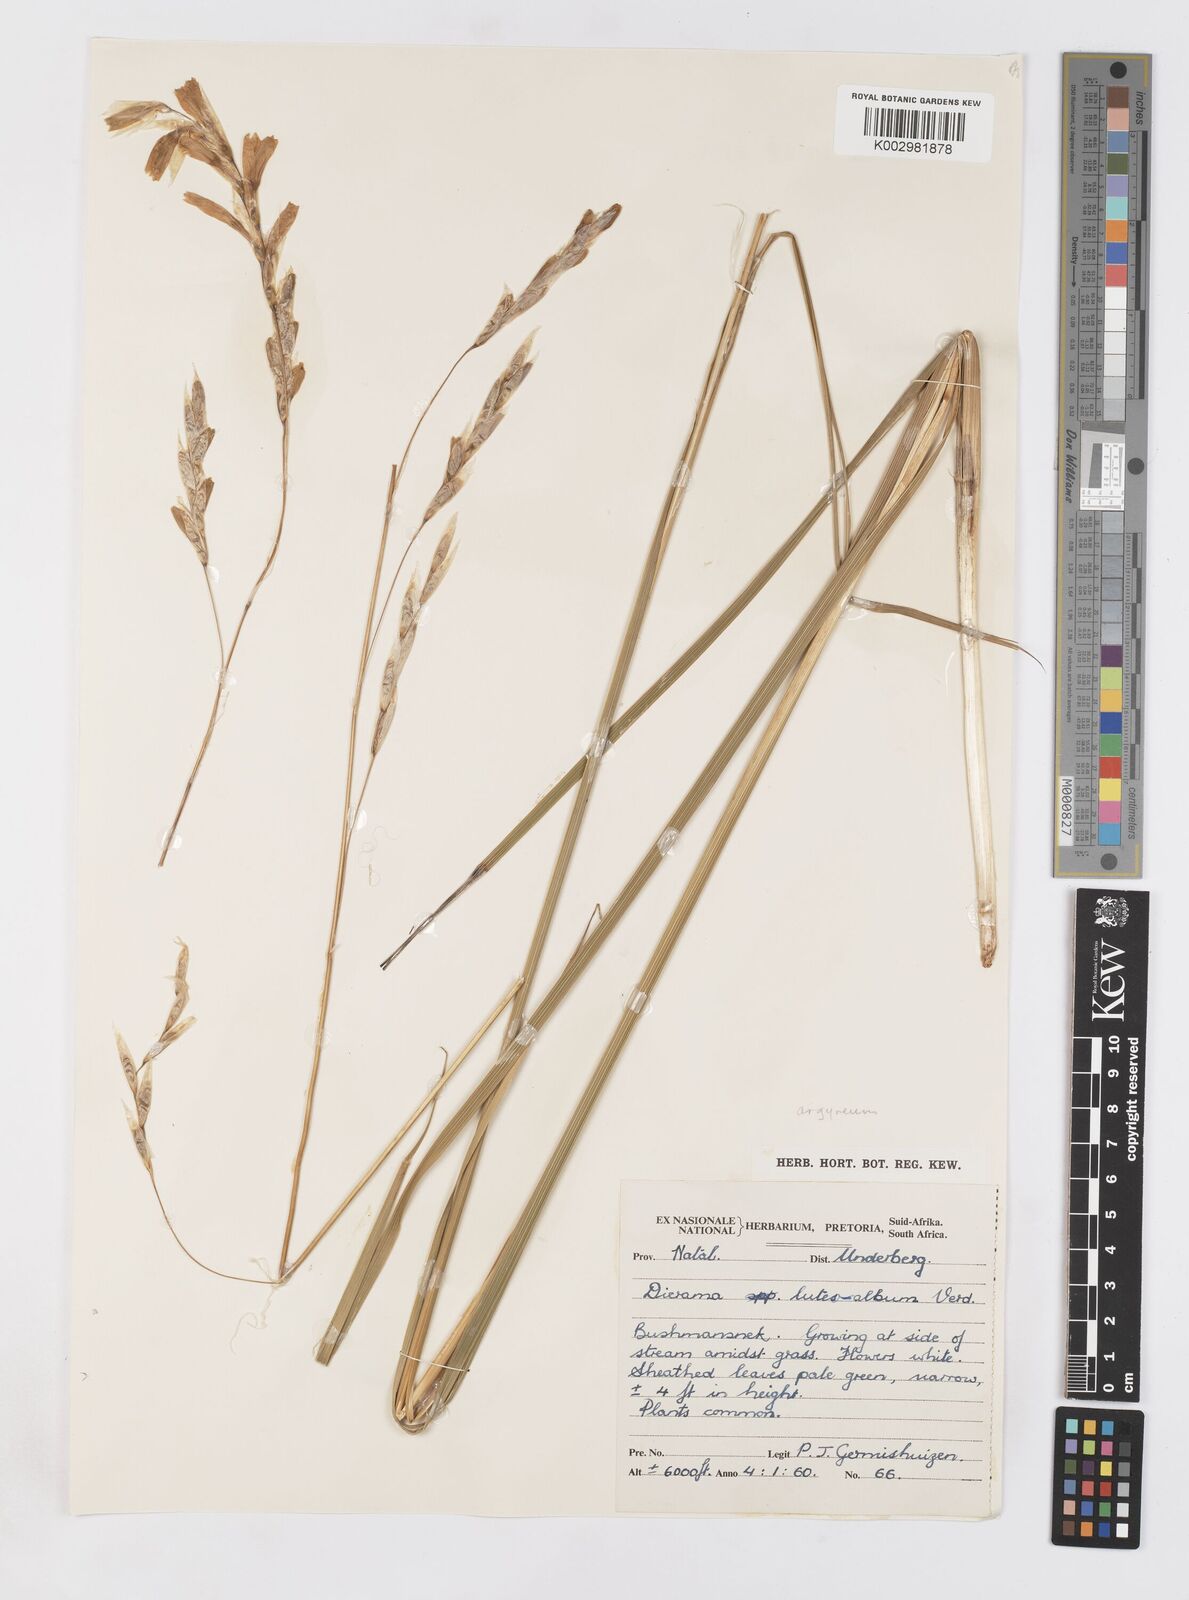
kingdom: Plantae
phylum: Tracheophyta
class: Liliopsida
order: Asparagales
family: Iridaceae
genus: Dierama
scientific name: Dierama argyreum
